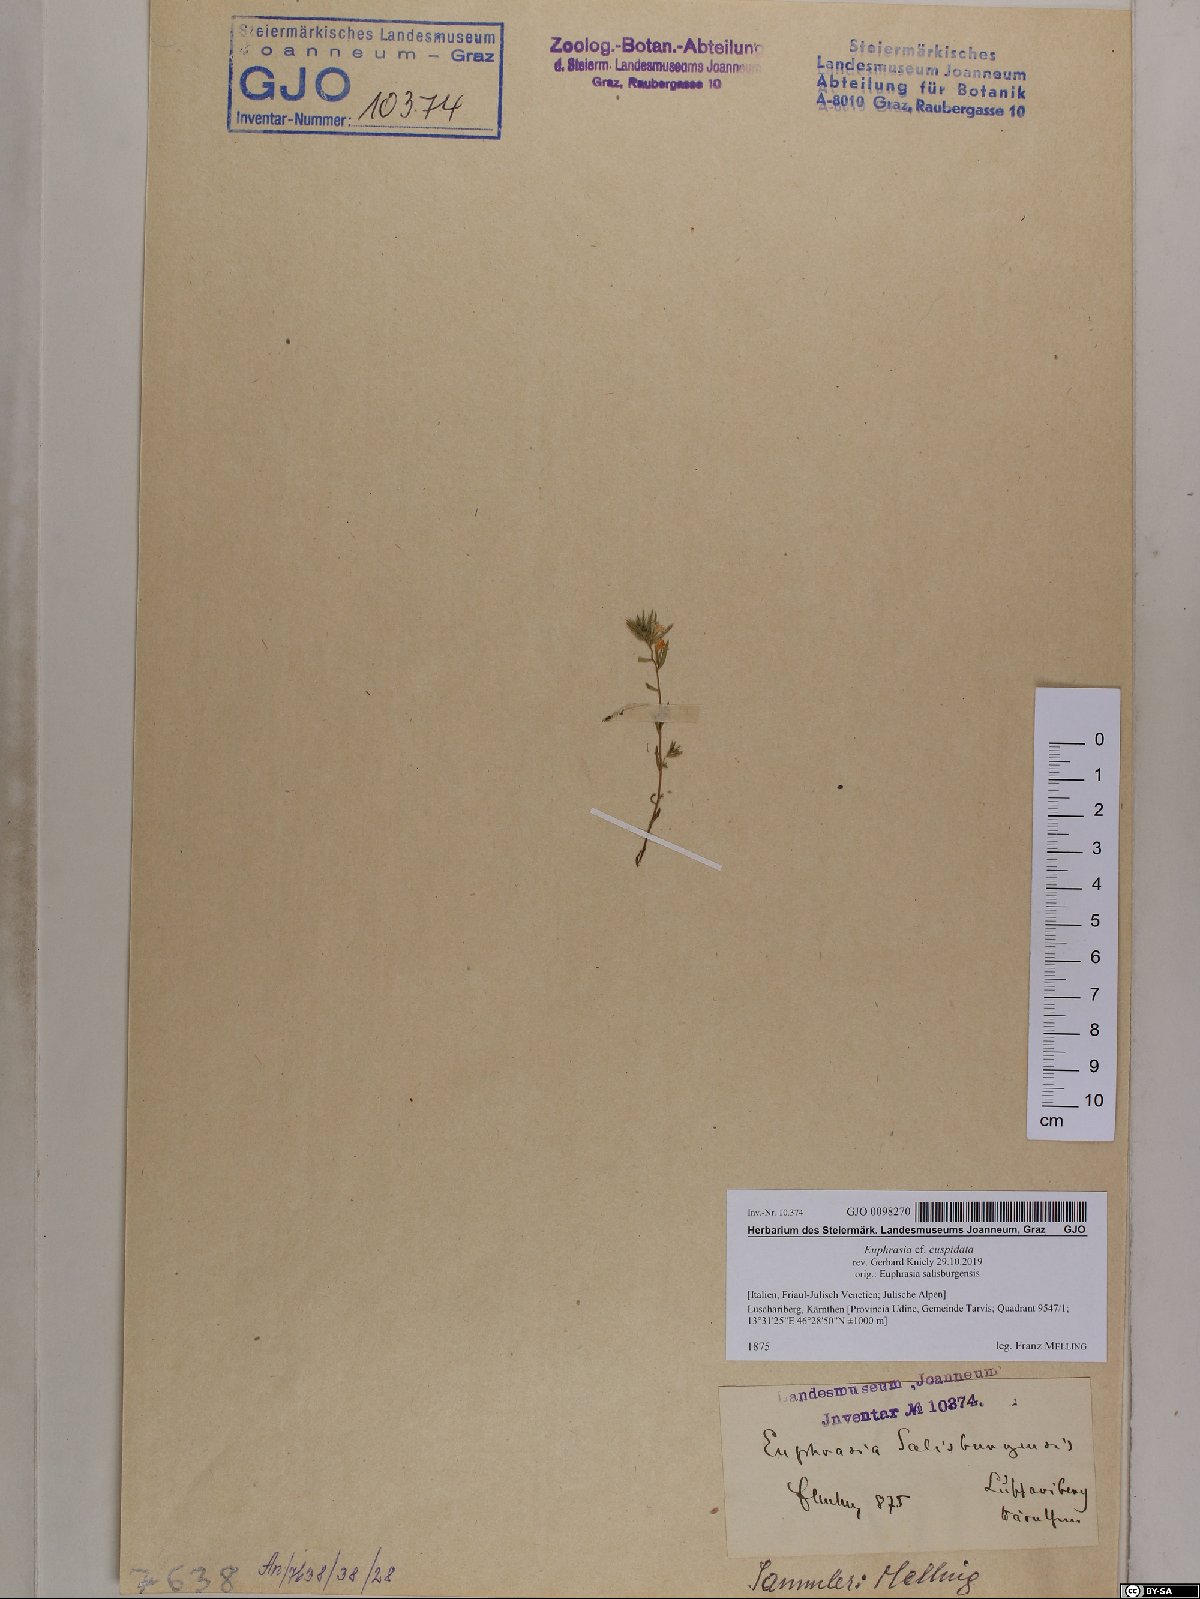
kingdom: Plantae
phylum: Tracheophyta
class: Magnoliopsida
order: Lamiales
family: Orobanchaceae
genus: Euphrasia
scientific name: Euphrasia cuspidata
